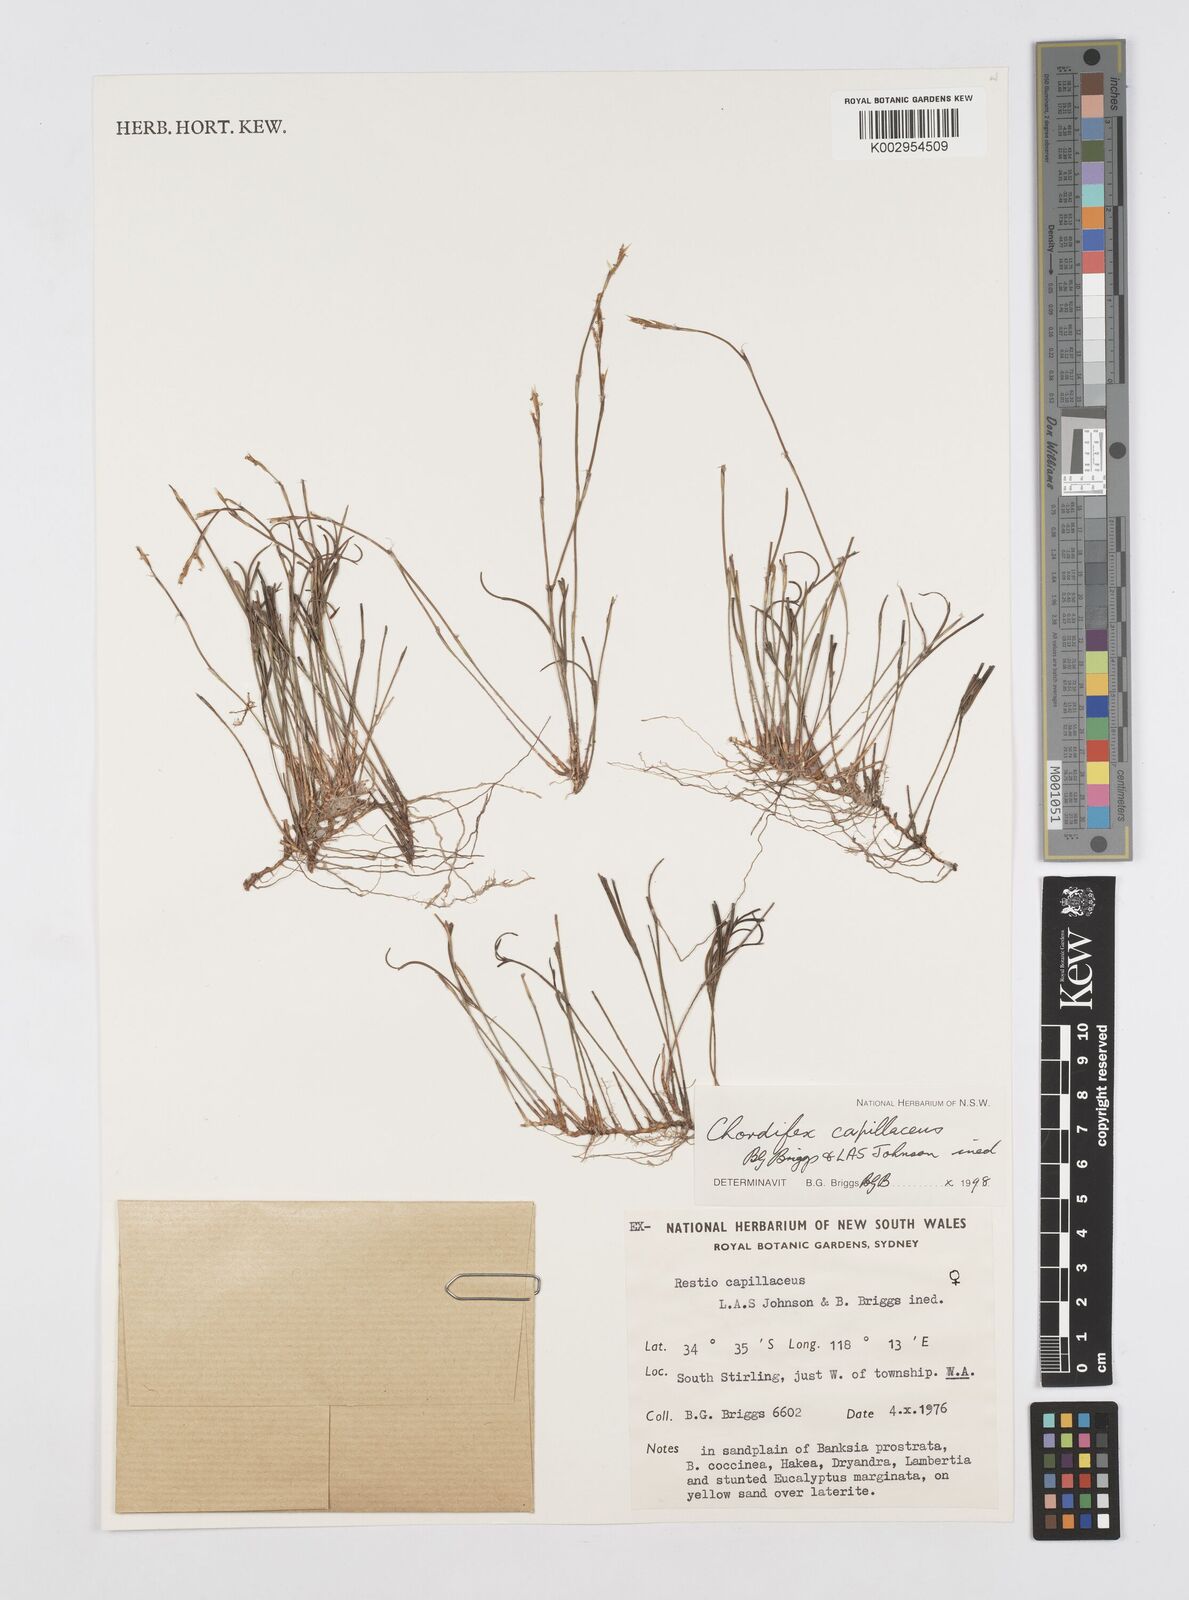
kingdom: Plantae
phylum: Tracheophyta
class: Liliopsida
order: Poales
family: Restionaceae
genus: Chordifex
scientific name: Chordifex capillaceus
